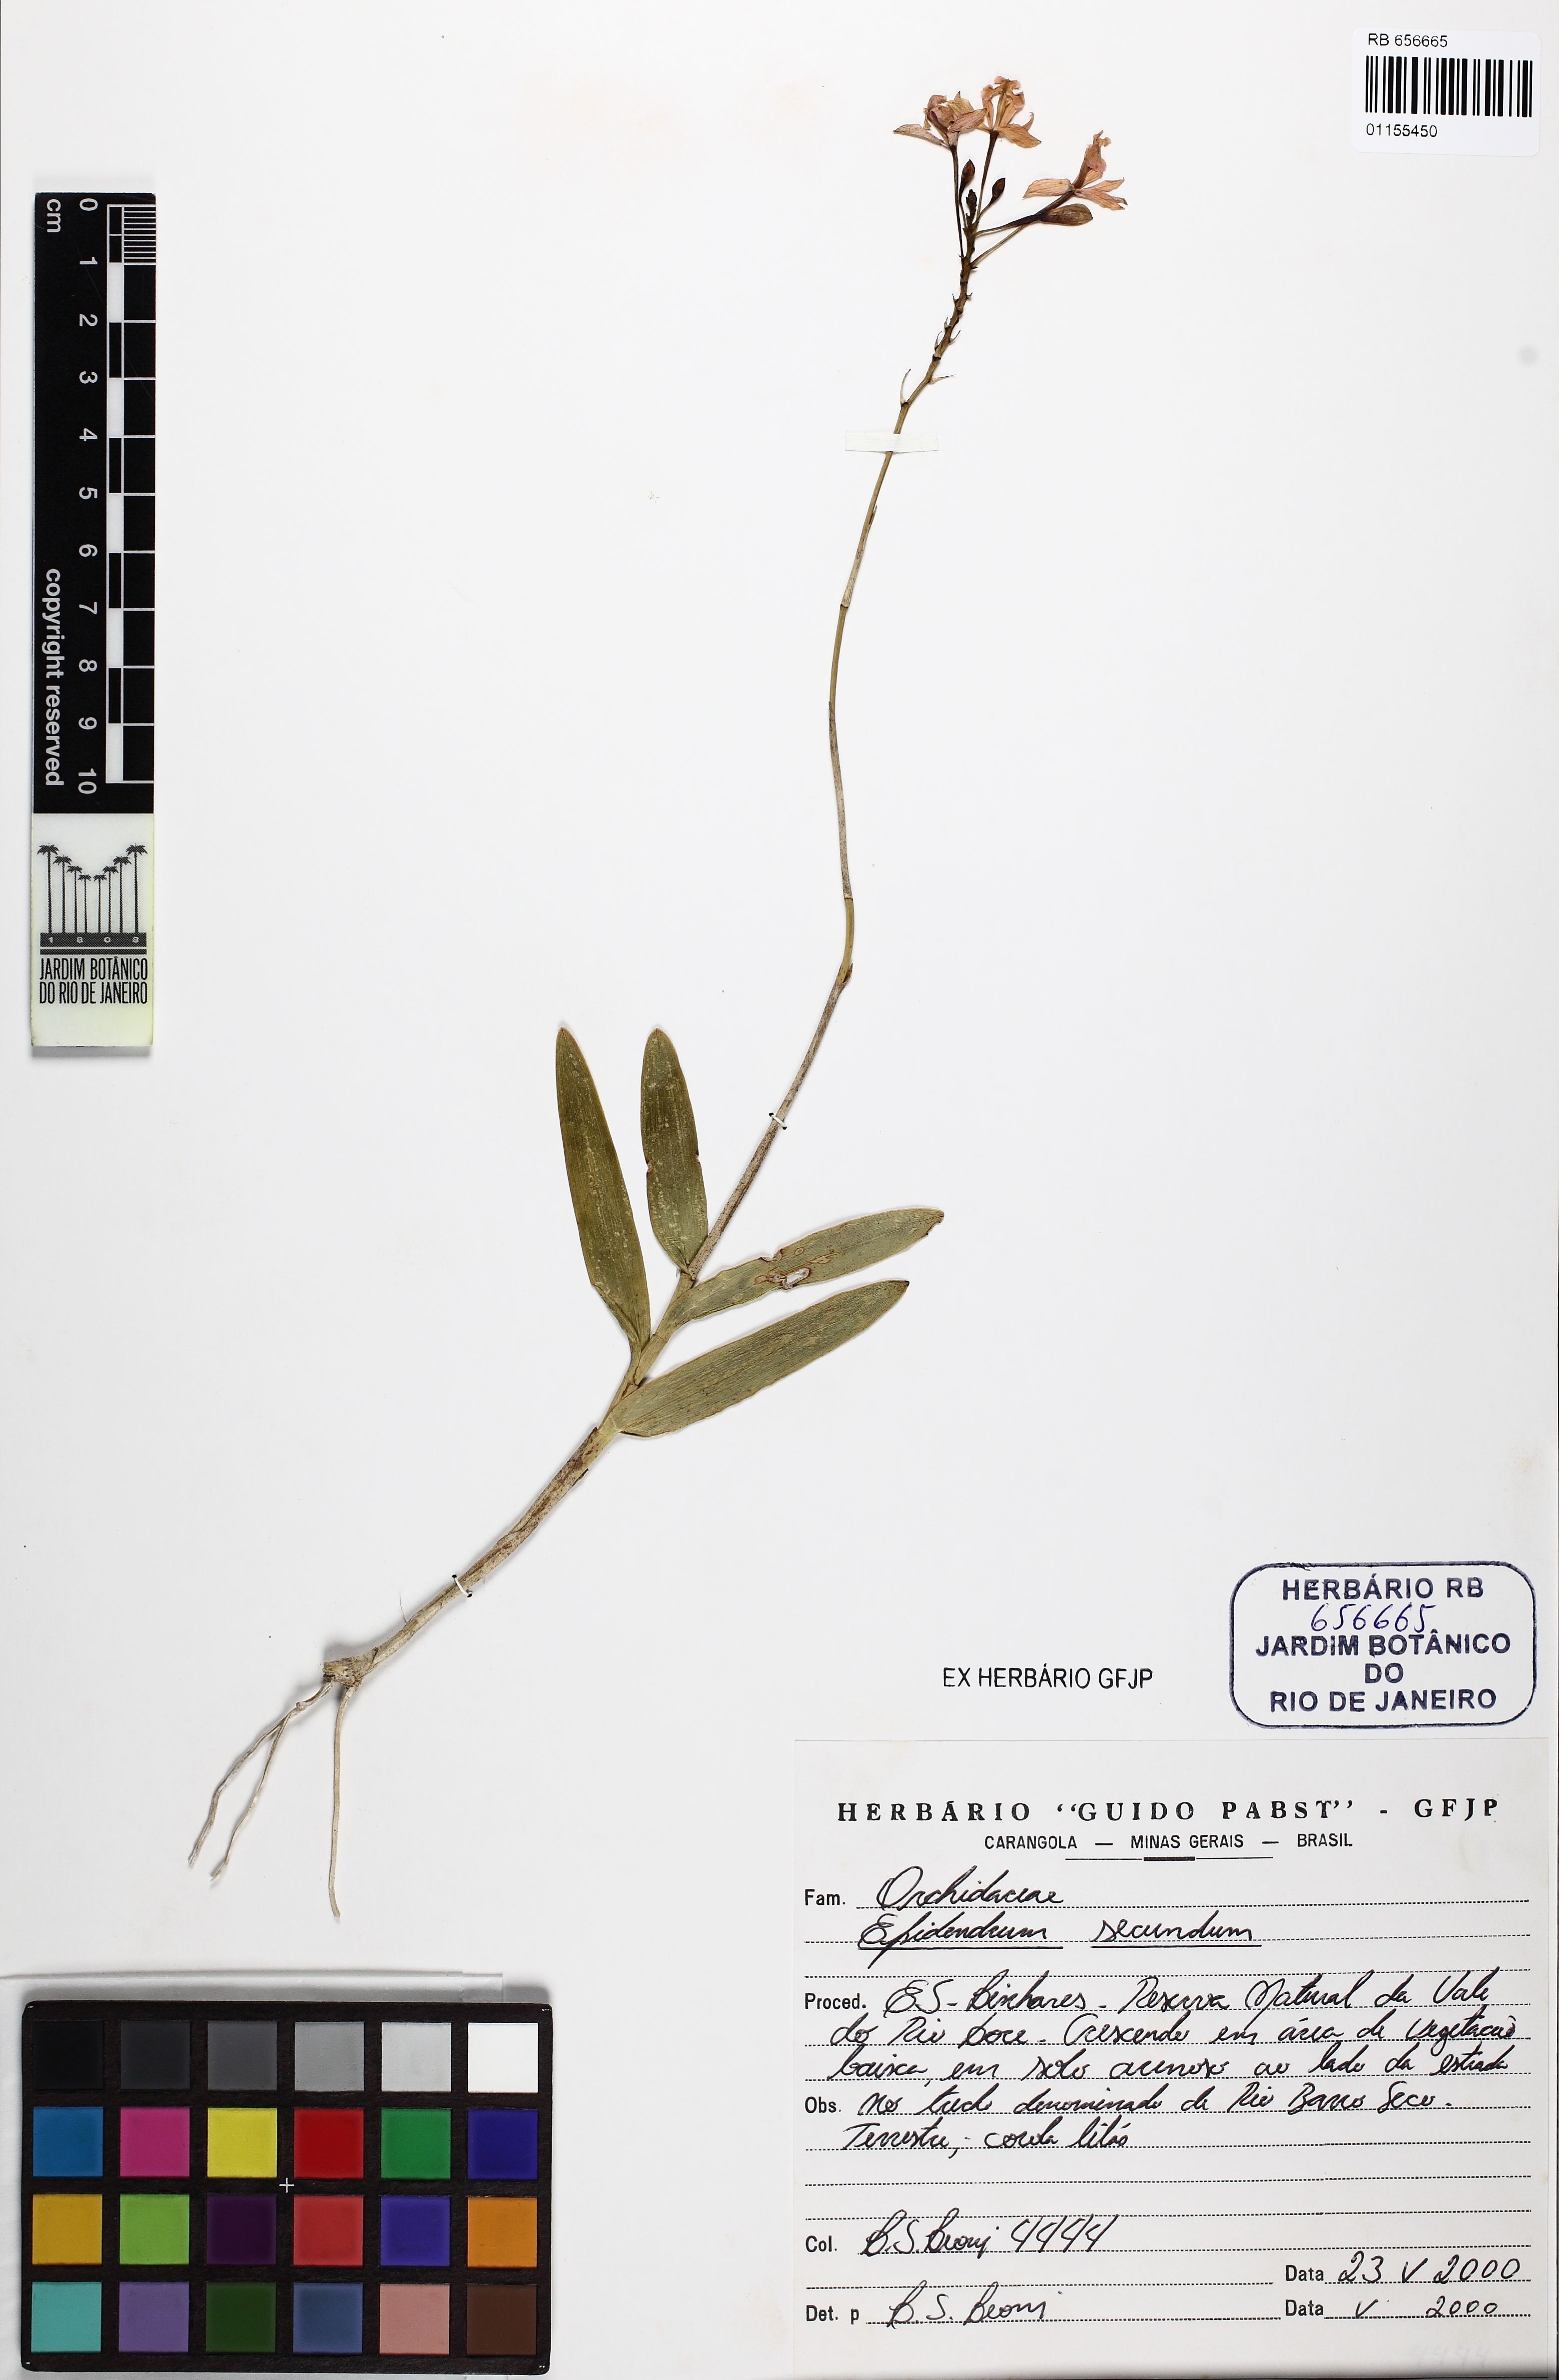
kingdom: Plantae
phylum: Tracheophyta
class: Liliopsida
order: Asparagales
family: Orchidaceae
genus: Epidendrum
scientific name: Epidendrum secundum
